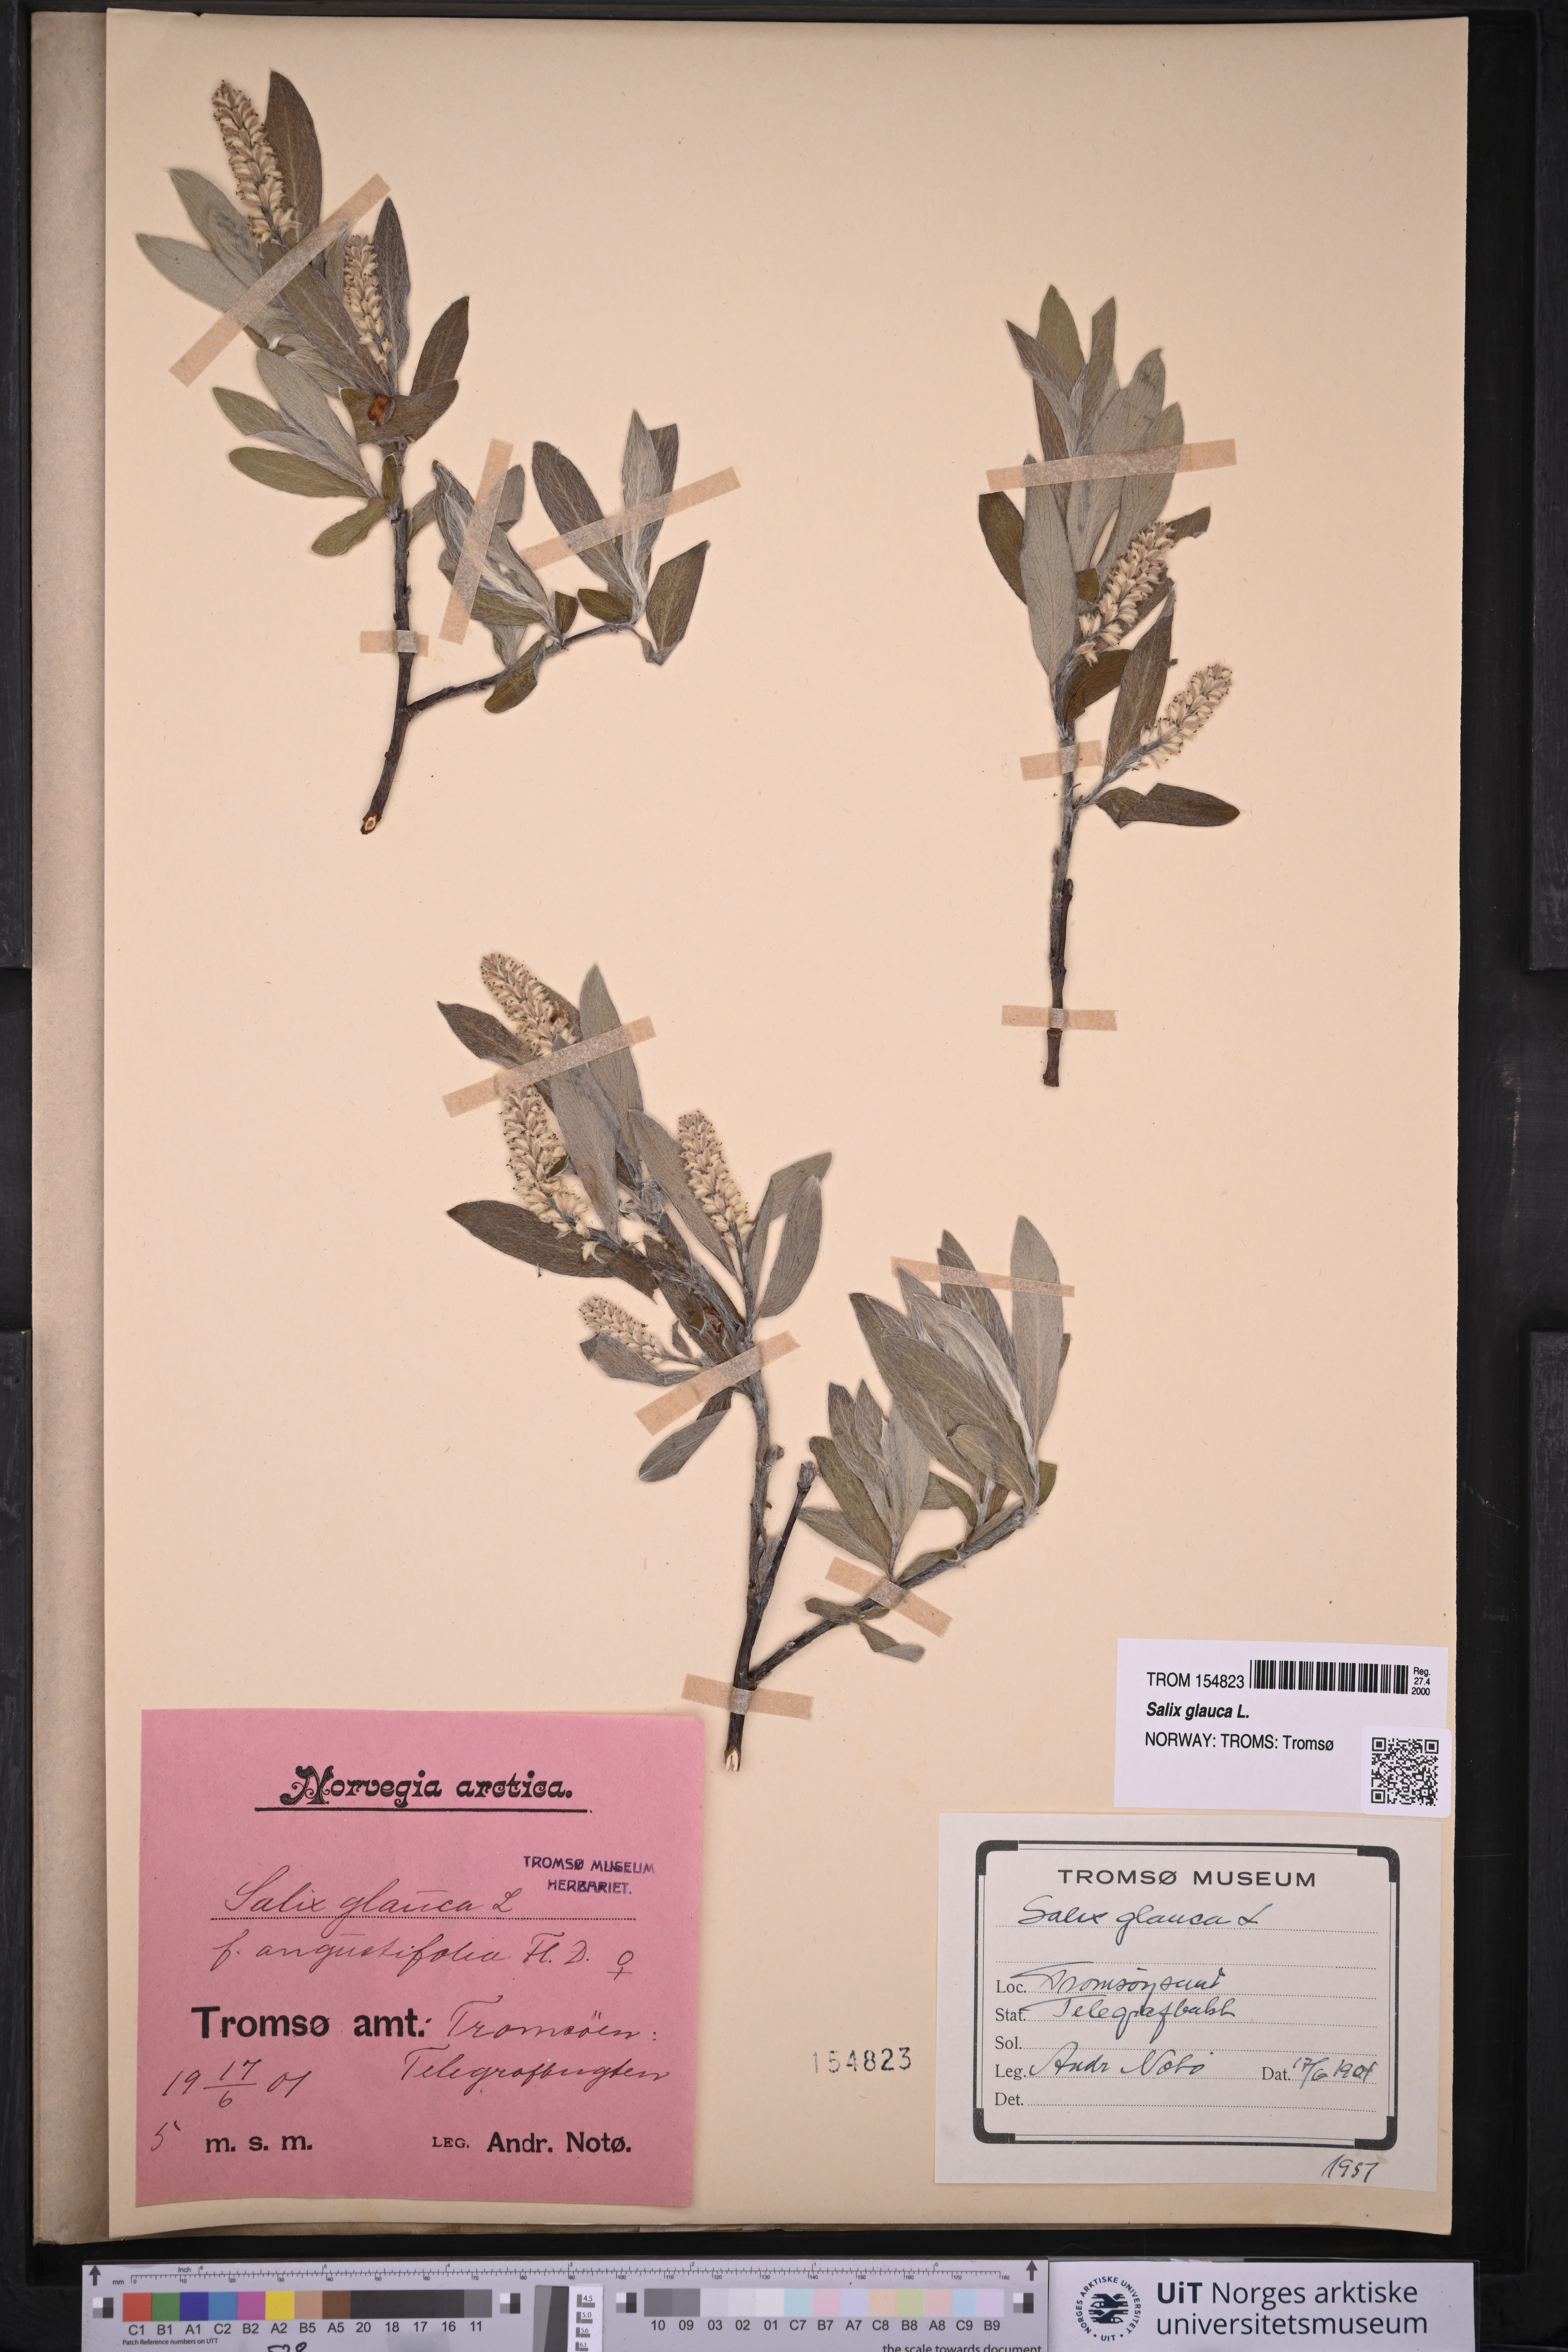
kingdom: Plantae
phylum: Tracheophyta
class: Magnoliopsida
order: Malpighiales
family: Salicaceae
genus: Salix
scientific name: Salix glauca
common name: Glaucous willow
